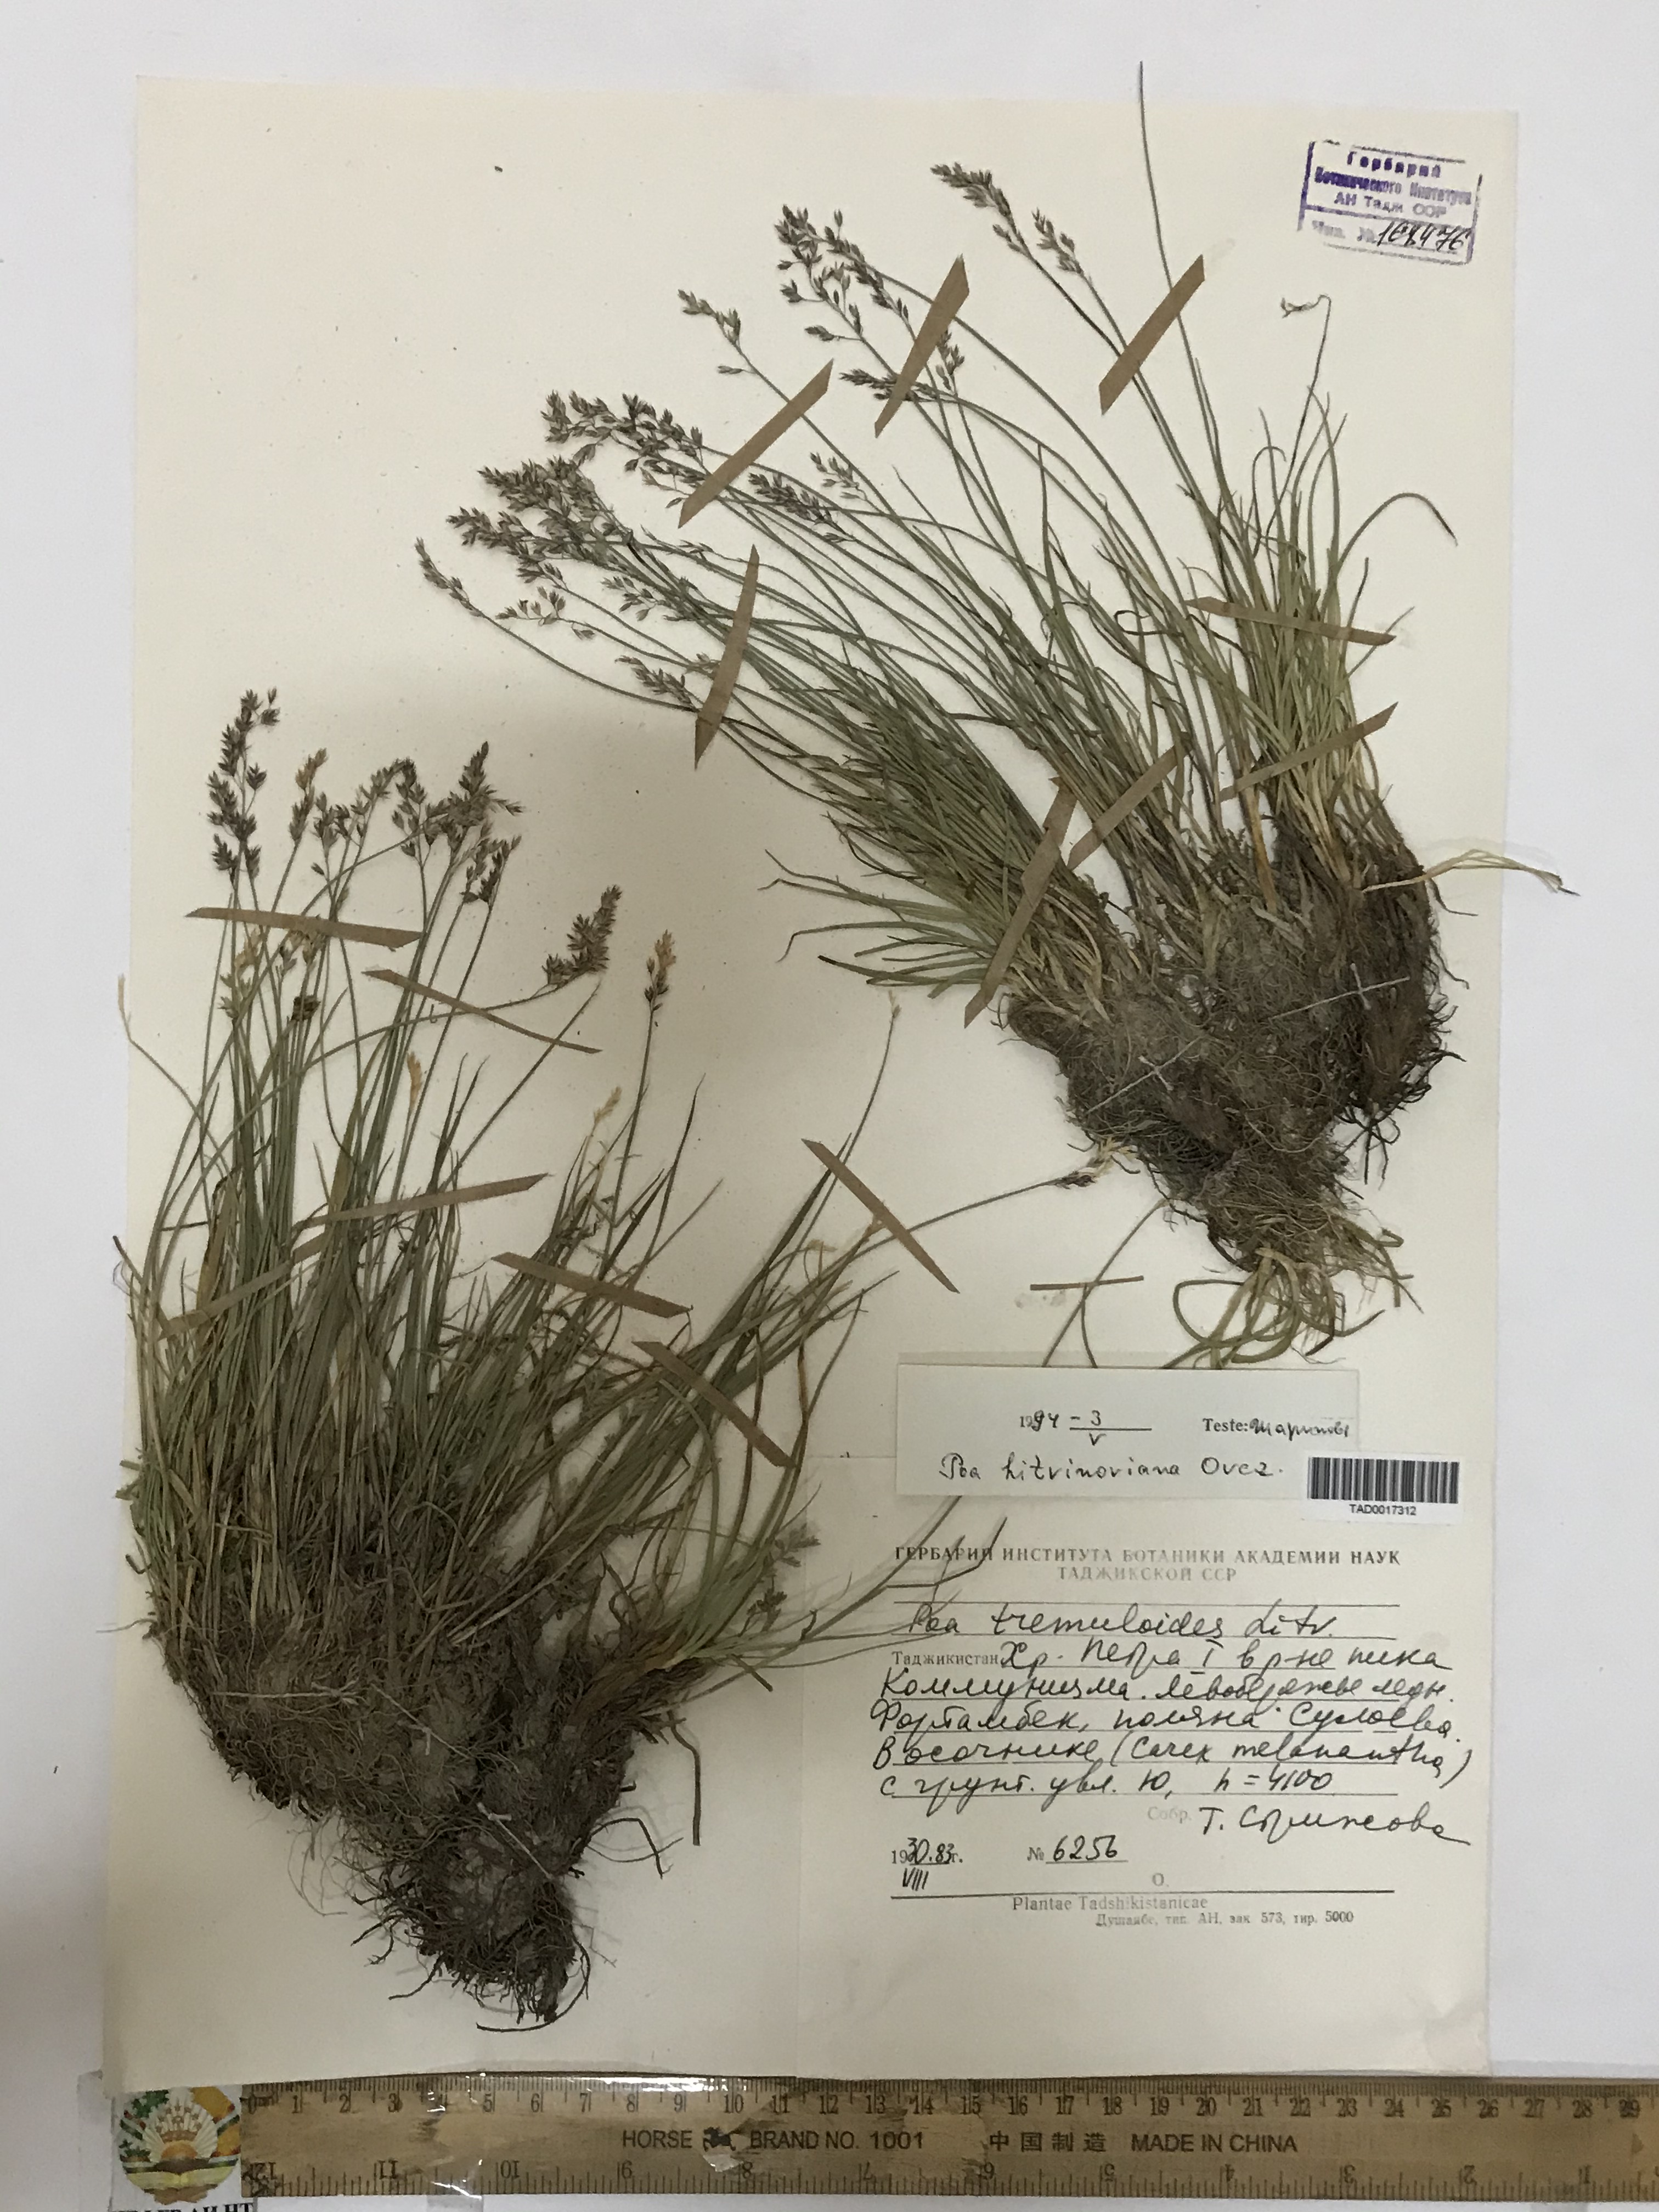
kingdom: Plantae
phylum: Tracheophyta
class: Liliopsida
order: Poales
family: Poaceae
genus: Poa
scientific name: Poa glauca
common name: Glaucous bluegrass
